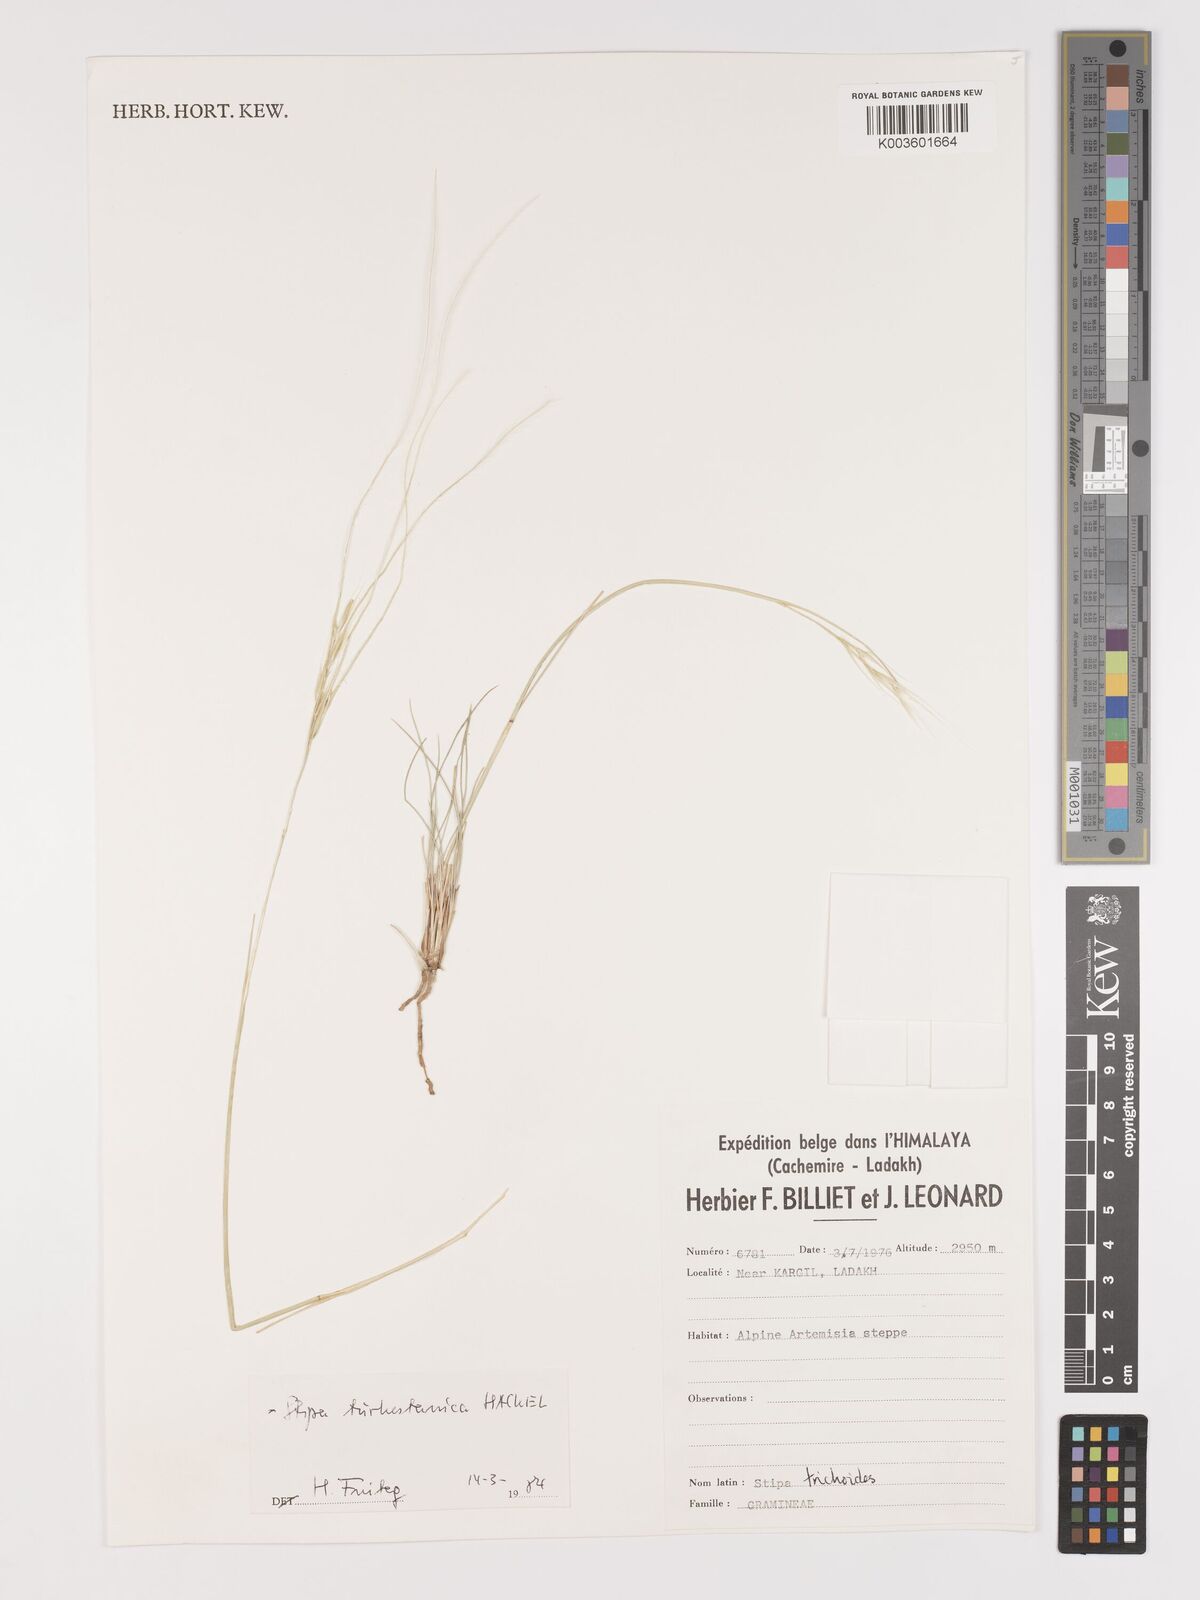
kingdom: Plantae
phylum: Tracheophyta
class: Liliopsida
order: Poales
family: Poaceae
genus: Stipa
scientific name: Stipa turkestanica
